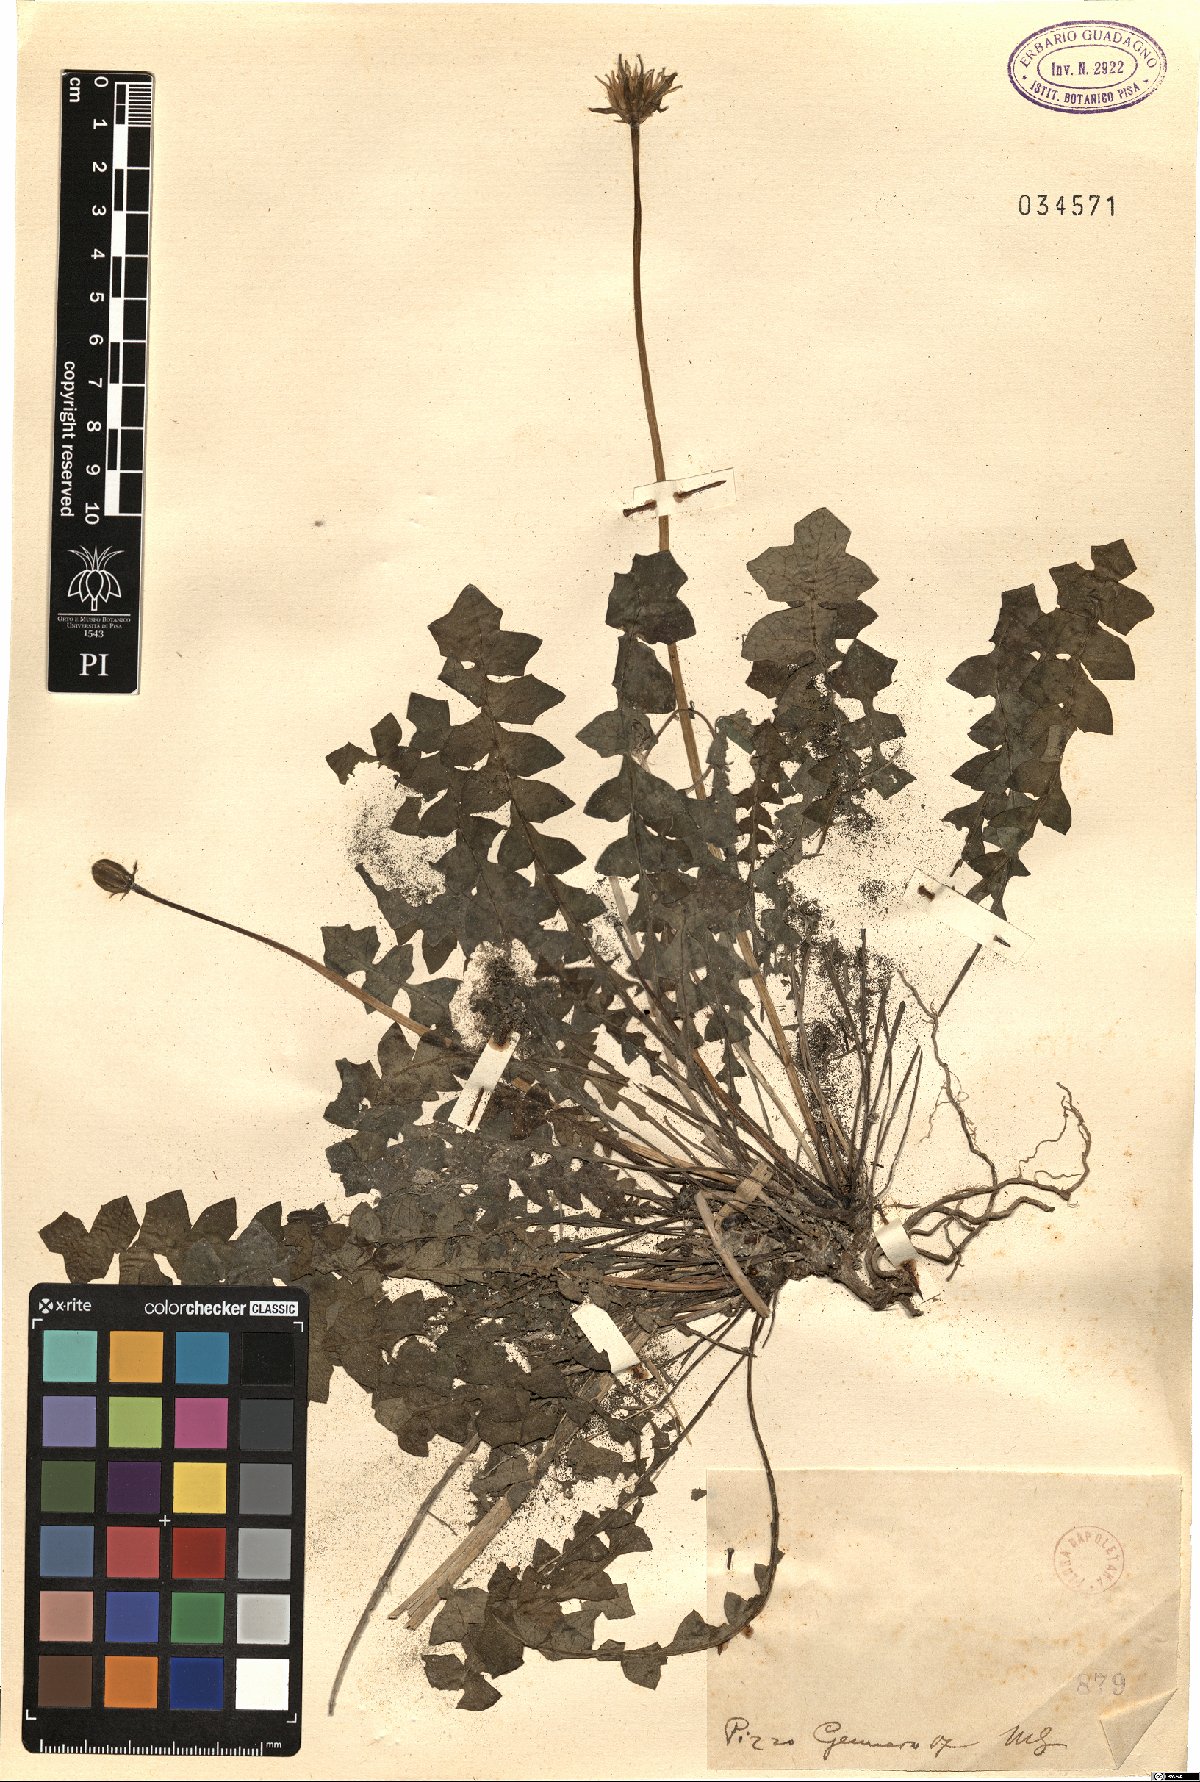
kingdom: Plantae
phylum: Tracheophyta
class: Magnoliopsida
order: Asterales
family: Asteraceae
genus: Hyoseris
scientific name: Hyoseris
